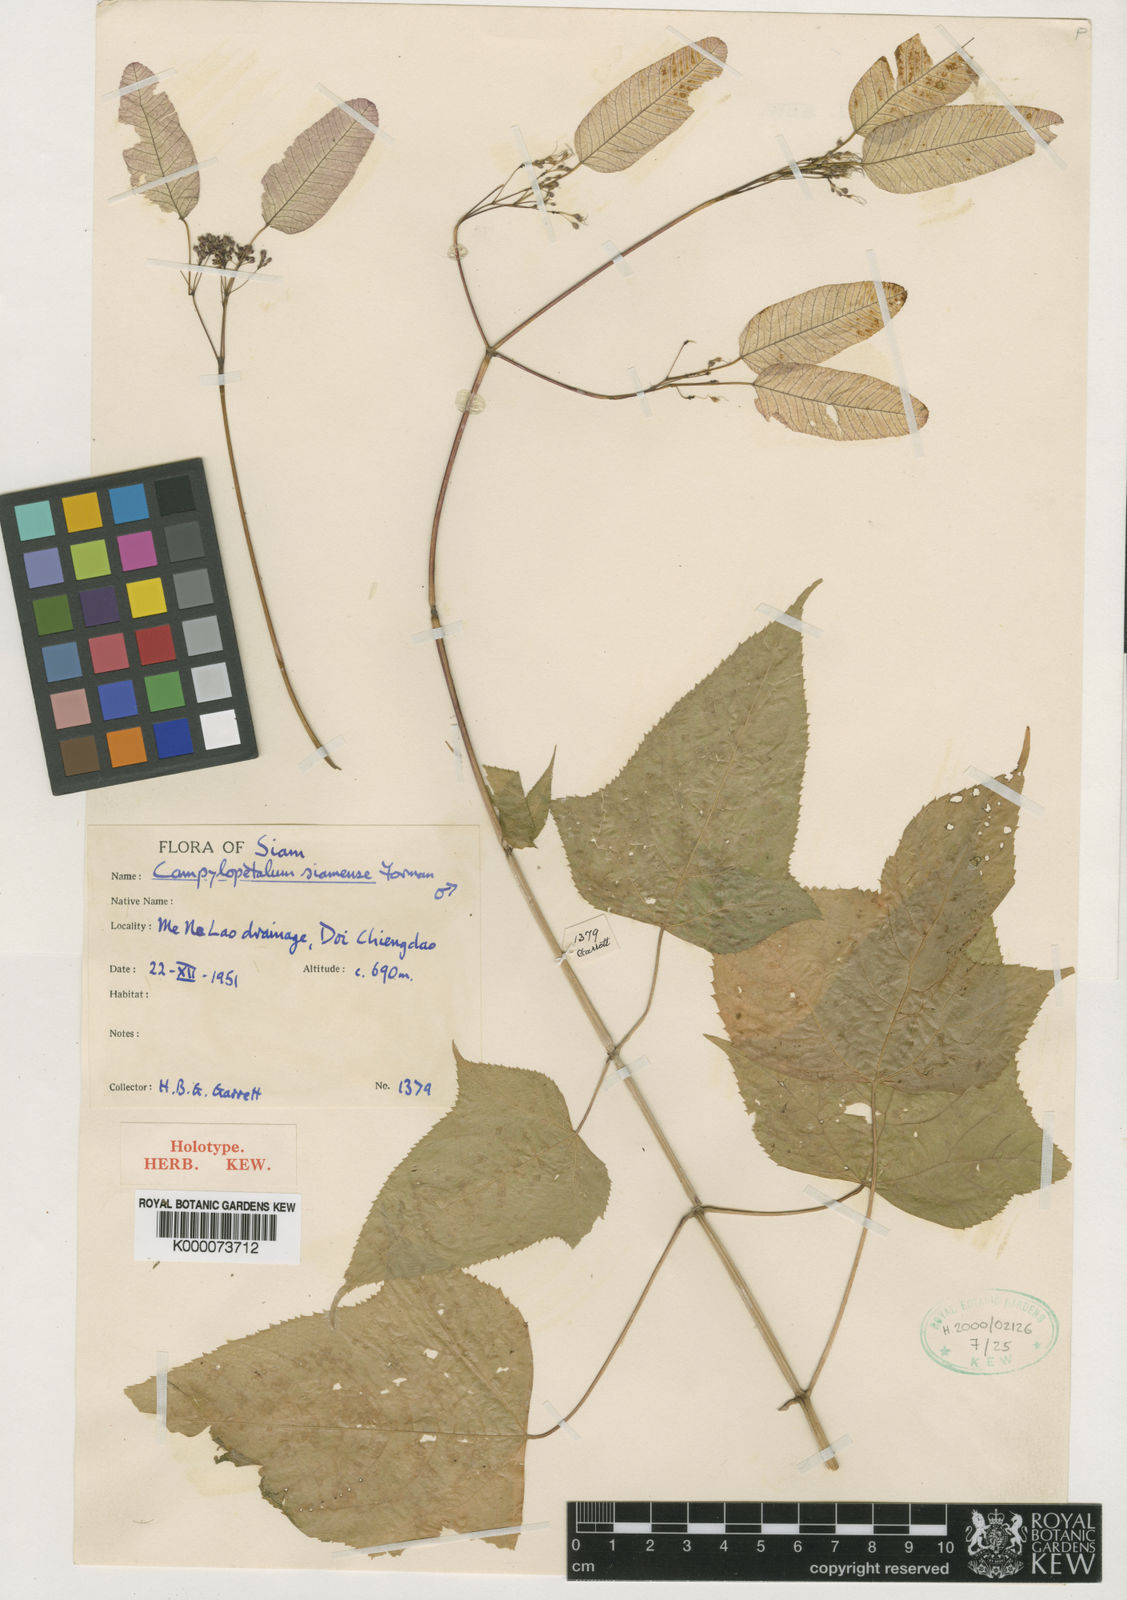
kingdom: Plantae
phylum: Tracheophyta
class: Magnoliopsida
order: Sapindales
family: Anacardiaceae
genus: Campylopetalum
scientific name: Campylopetalum siamense
